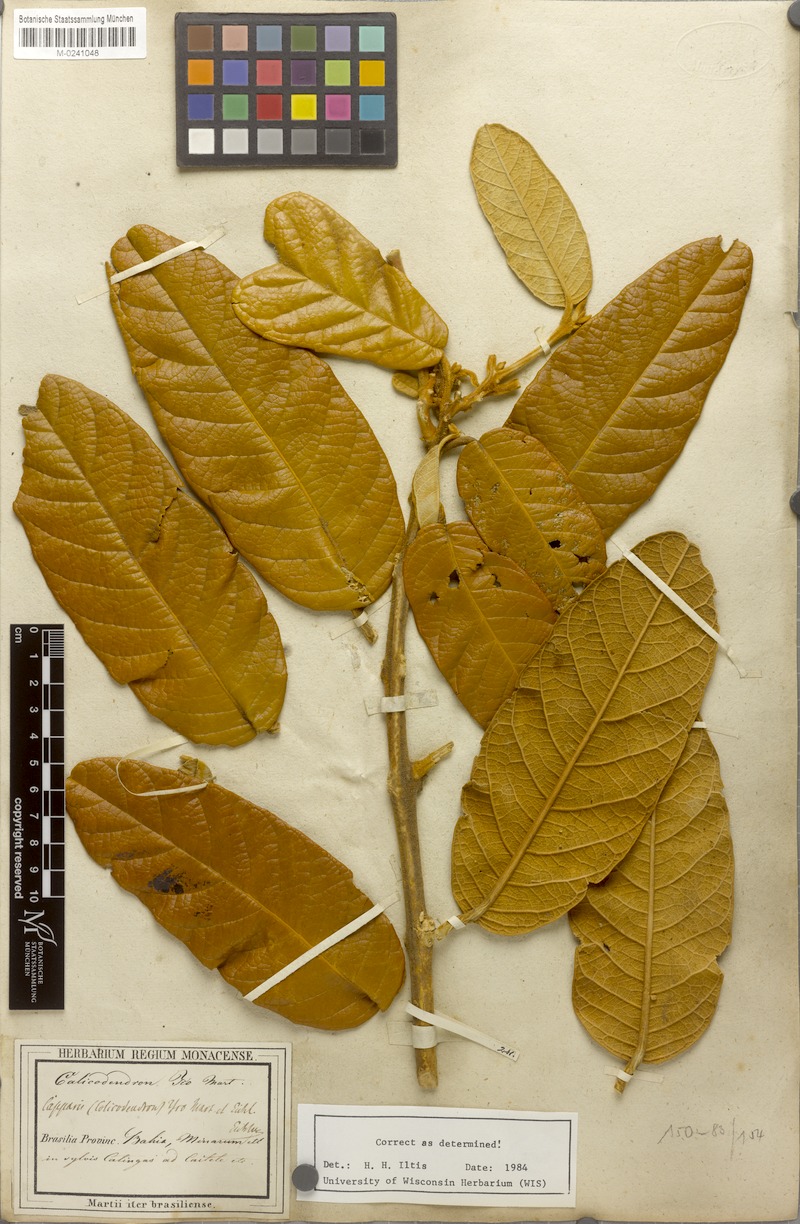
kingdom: Plantae
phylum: Tracheophyta
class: Magnoliopsida
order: Brassicales
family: Capparaceae
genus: Colicodendron
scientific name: Colicodendron yco
